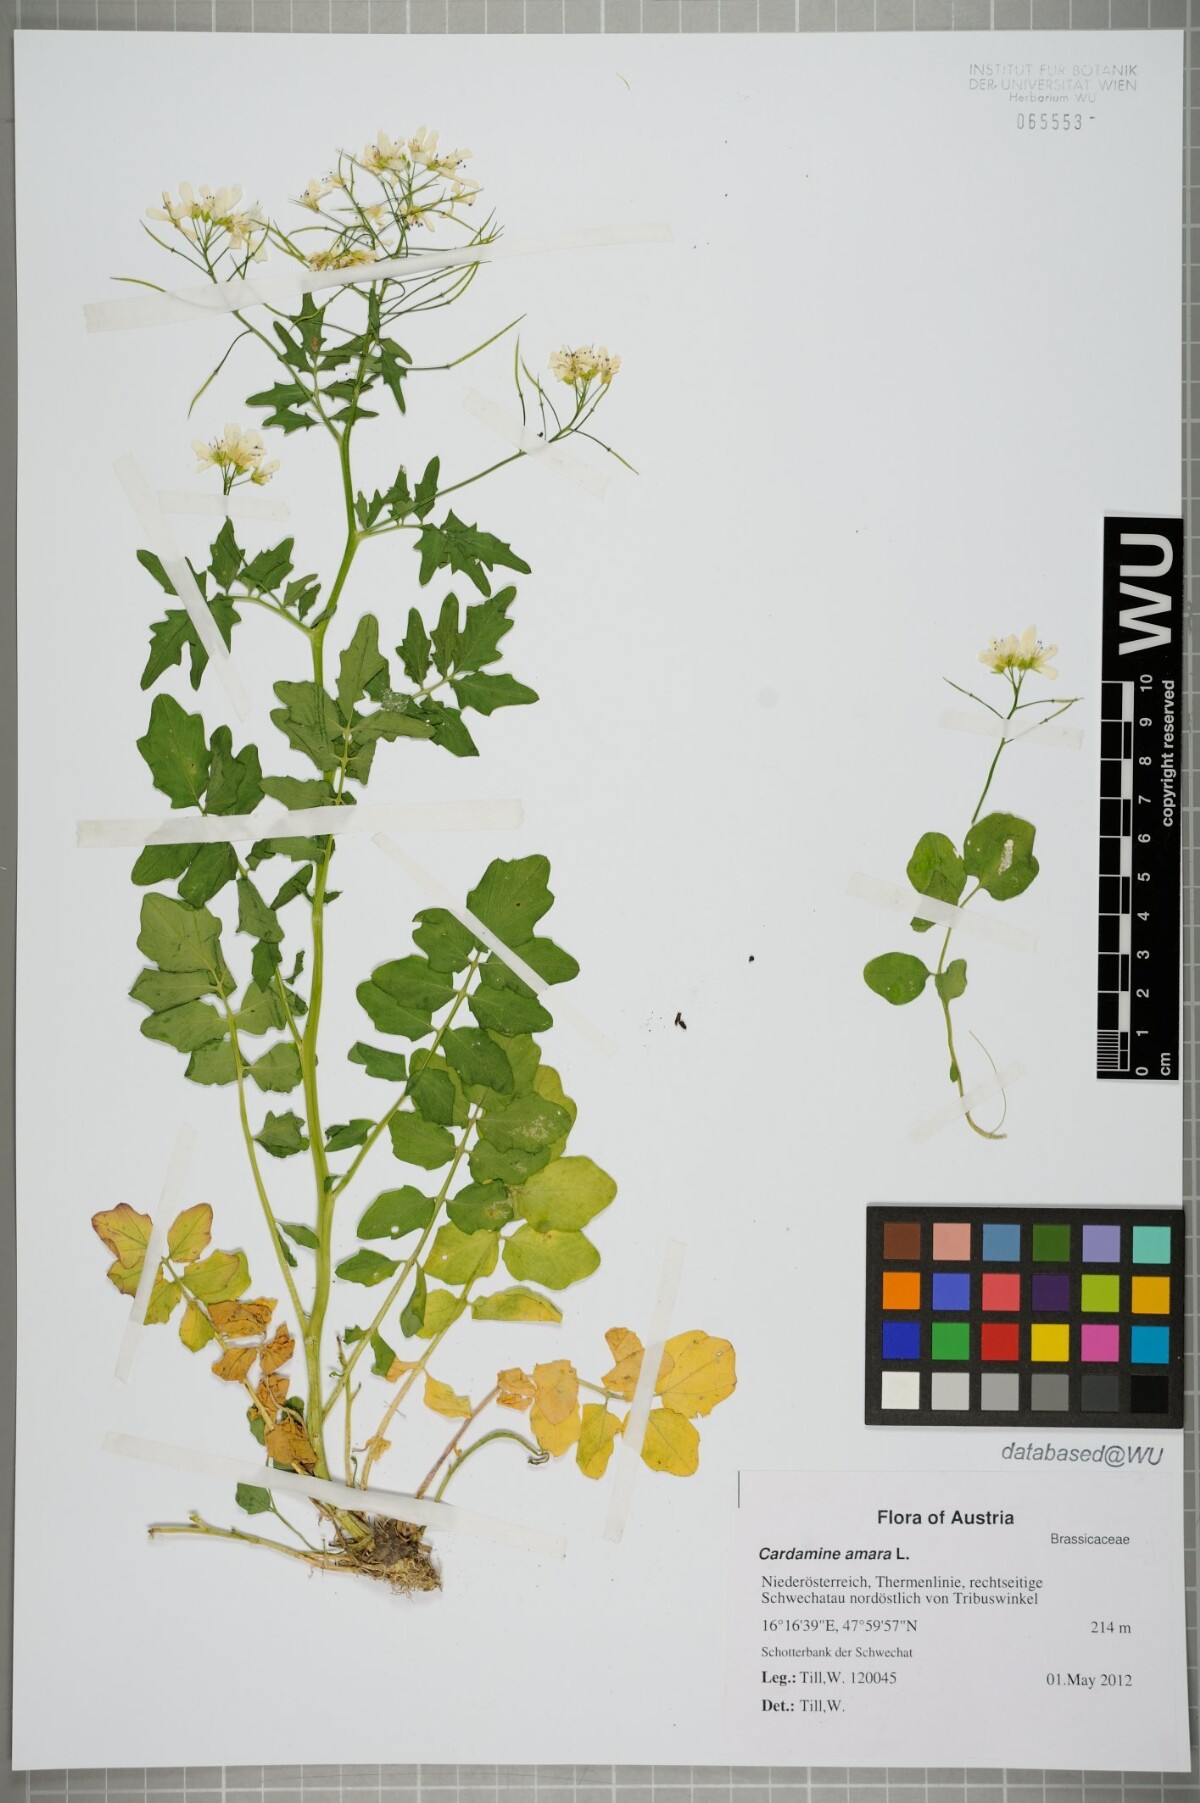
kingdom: Plantae
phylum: Tracheophyta
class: Magnoliopsida
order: Brassicales
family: Brassicaceae
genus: Cardamine
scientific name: Cardamine amara
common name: Large bitter-cress
